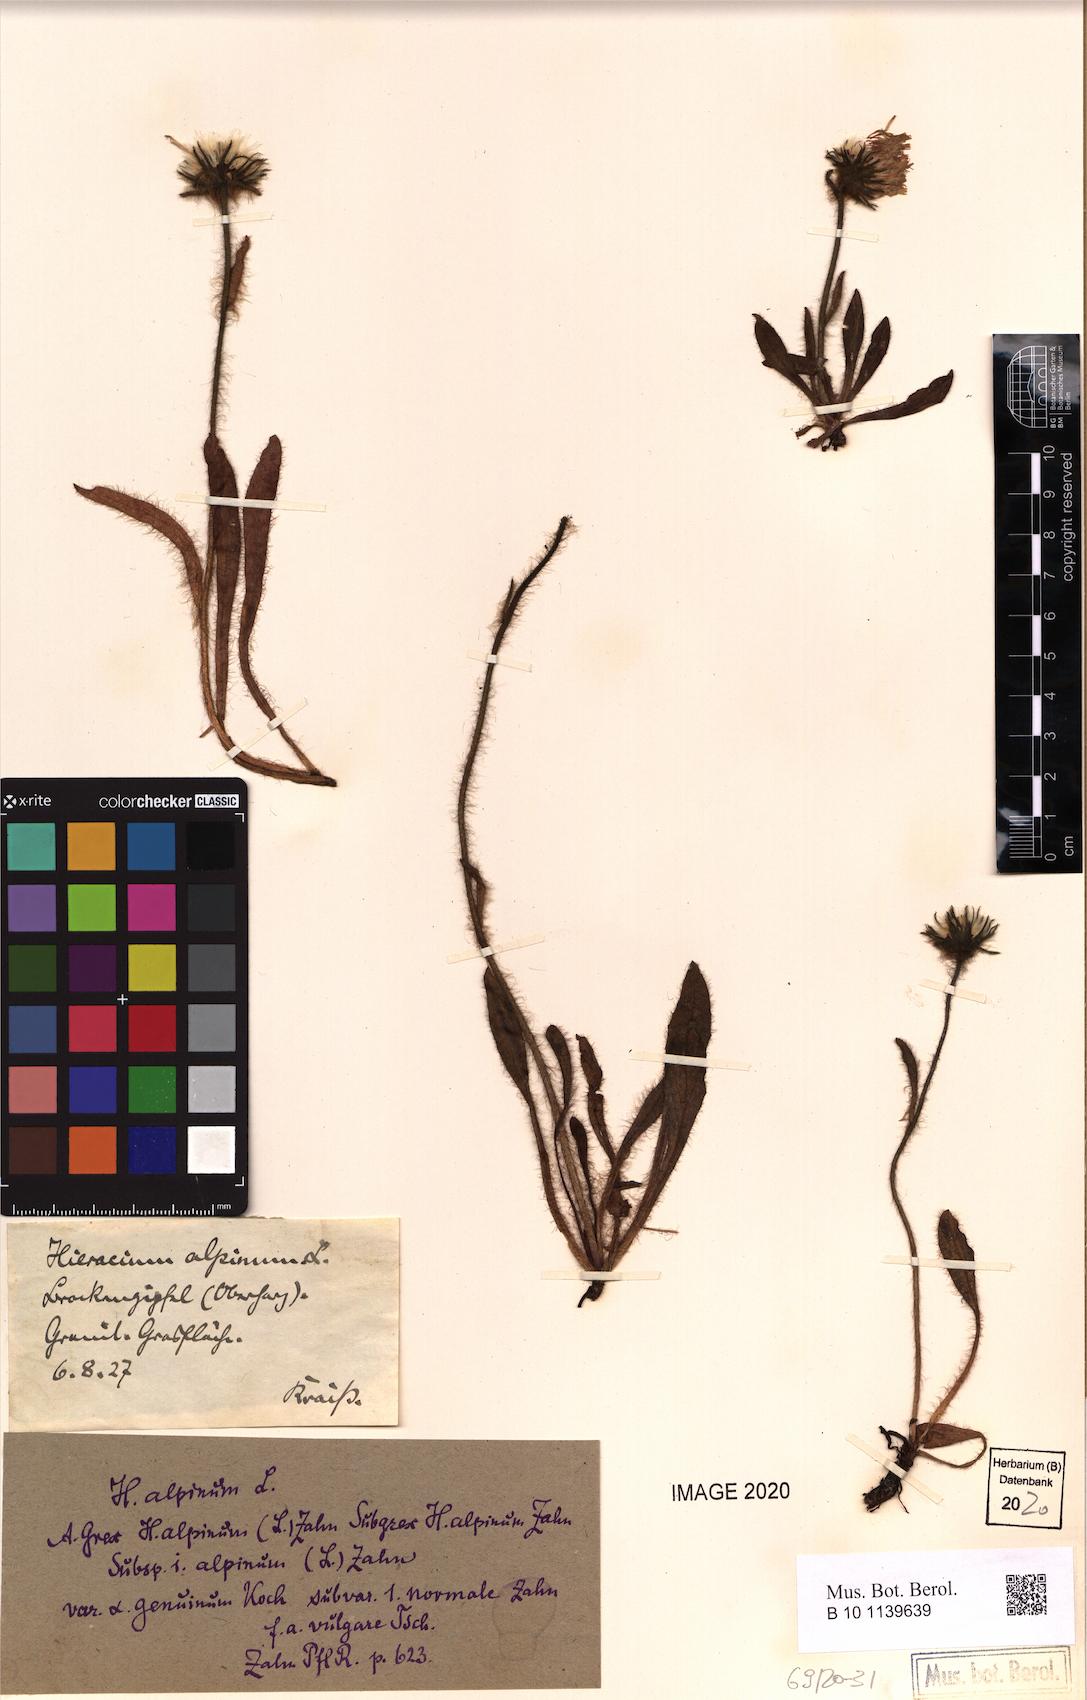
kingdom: Plantae
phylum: Tracheophyta
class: Magnoliopsida
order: Asterales
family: Asteraceae
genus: Hieracium
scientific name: Hieracium alpinum
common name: Alpine hawkweed
